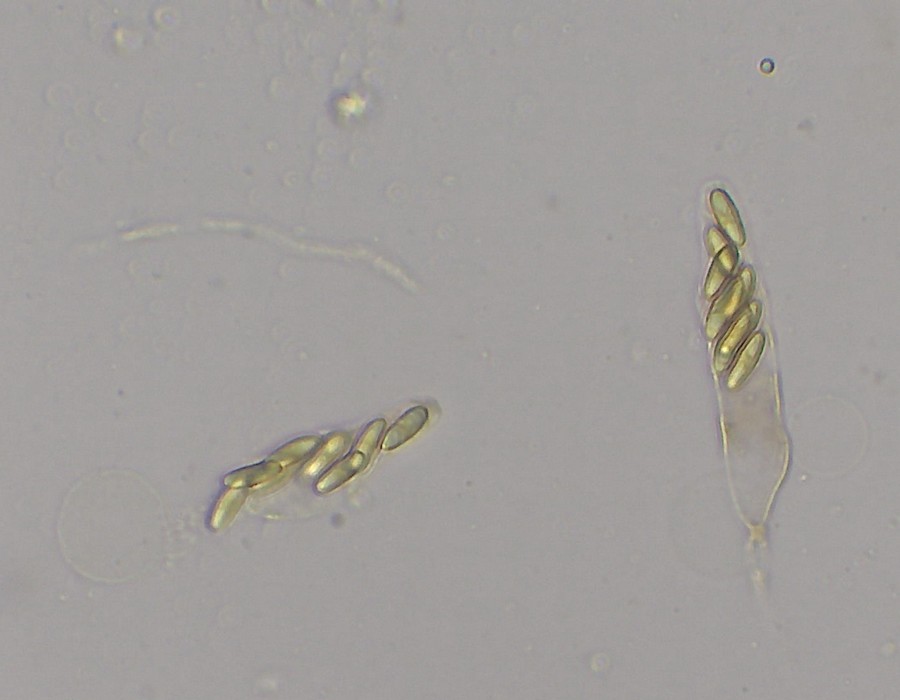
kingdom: Fungi
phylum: Ascomycota
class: Sordariomycetes
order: Calosphaeriales
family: Calosphaeriaceae
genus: Natantiella
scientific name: Natantiella ligneola
